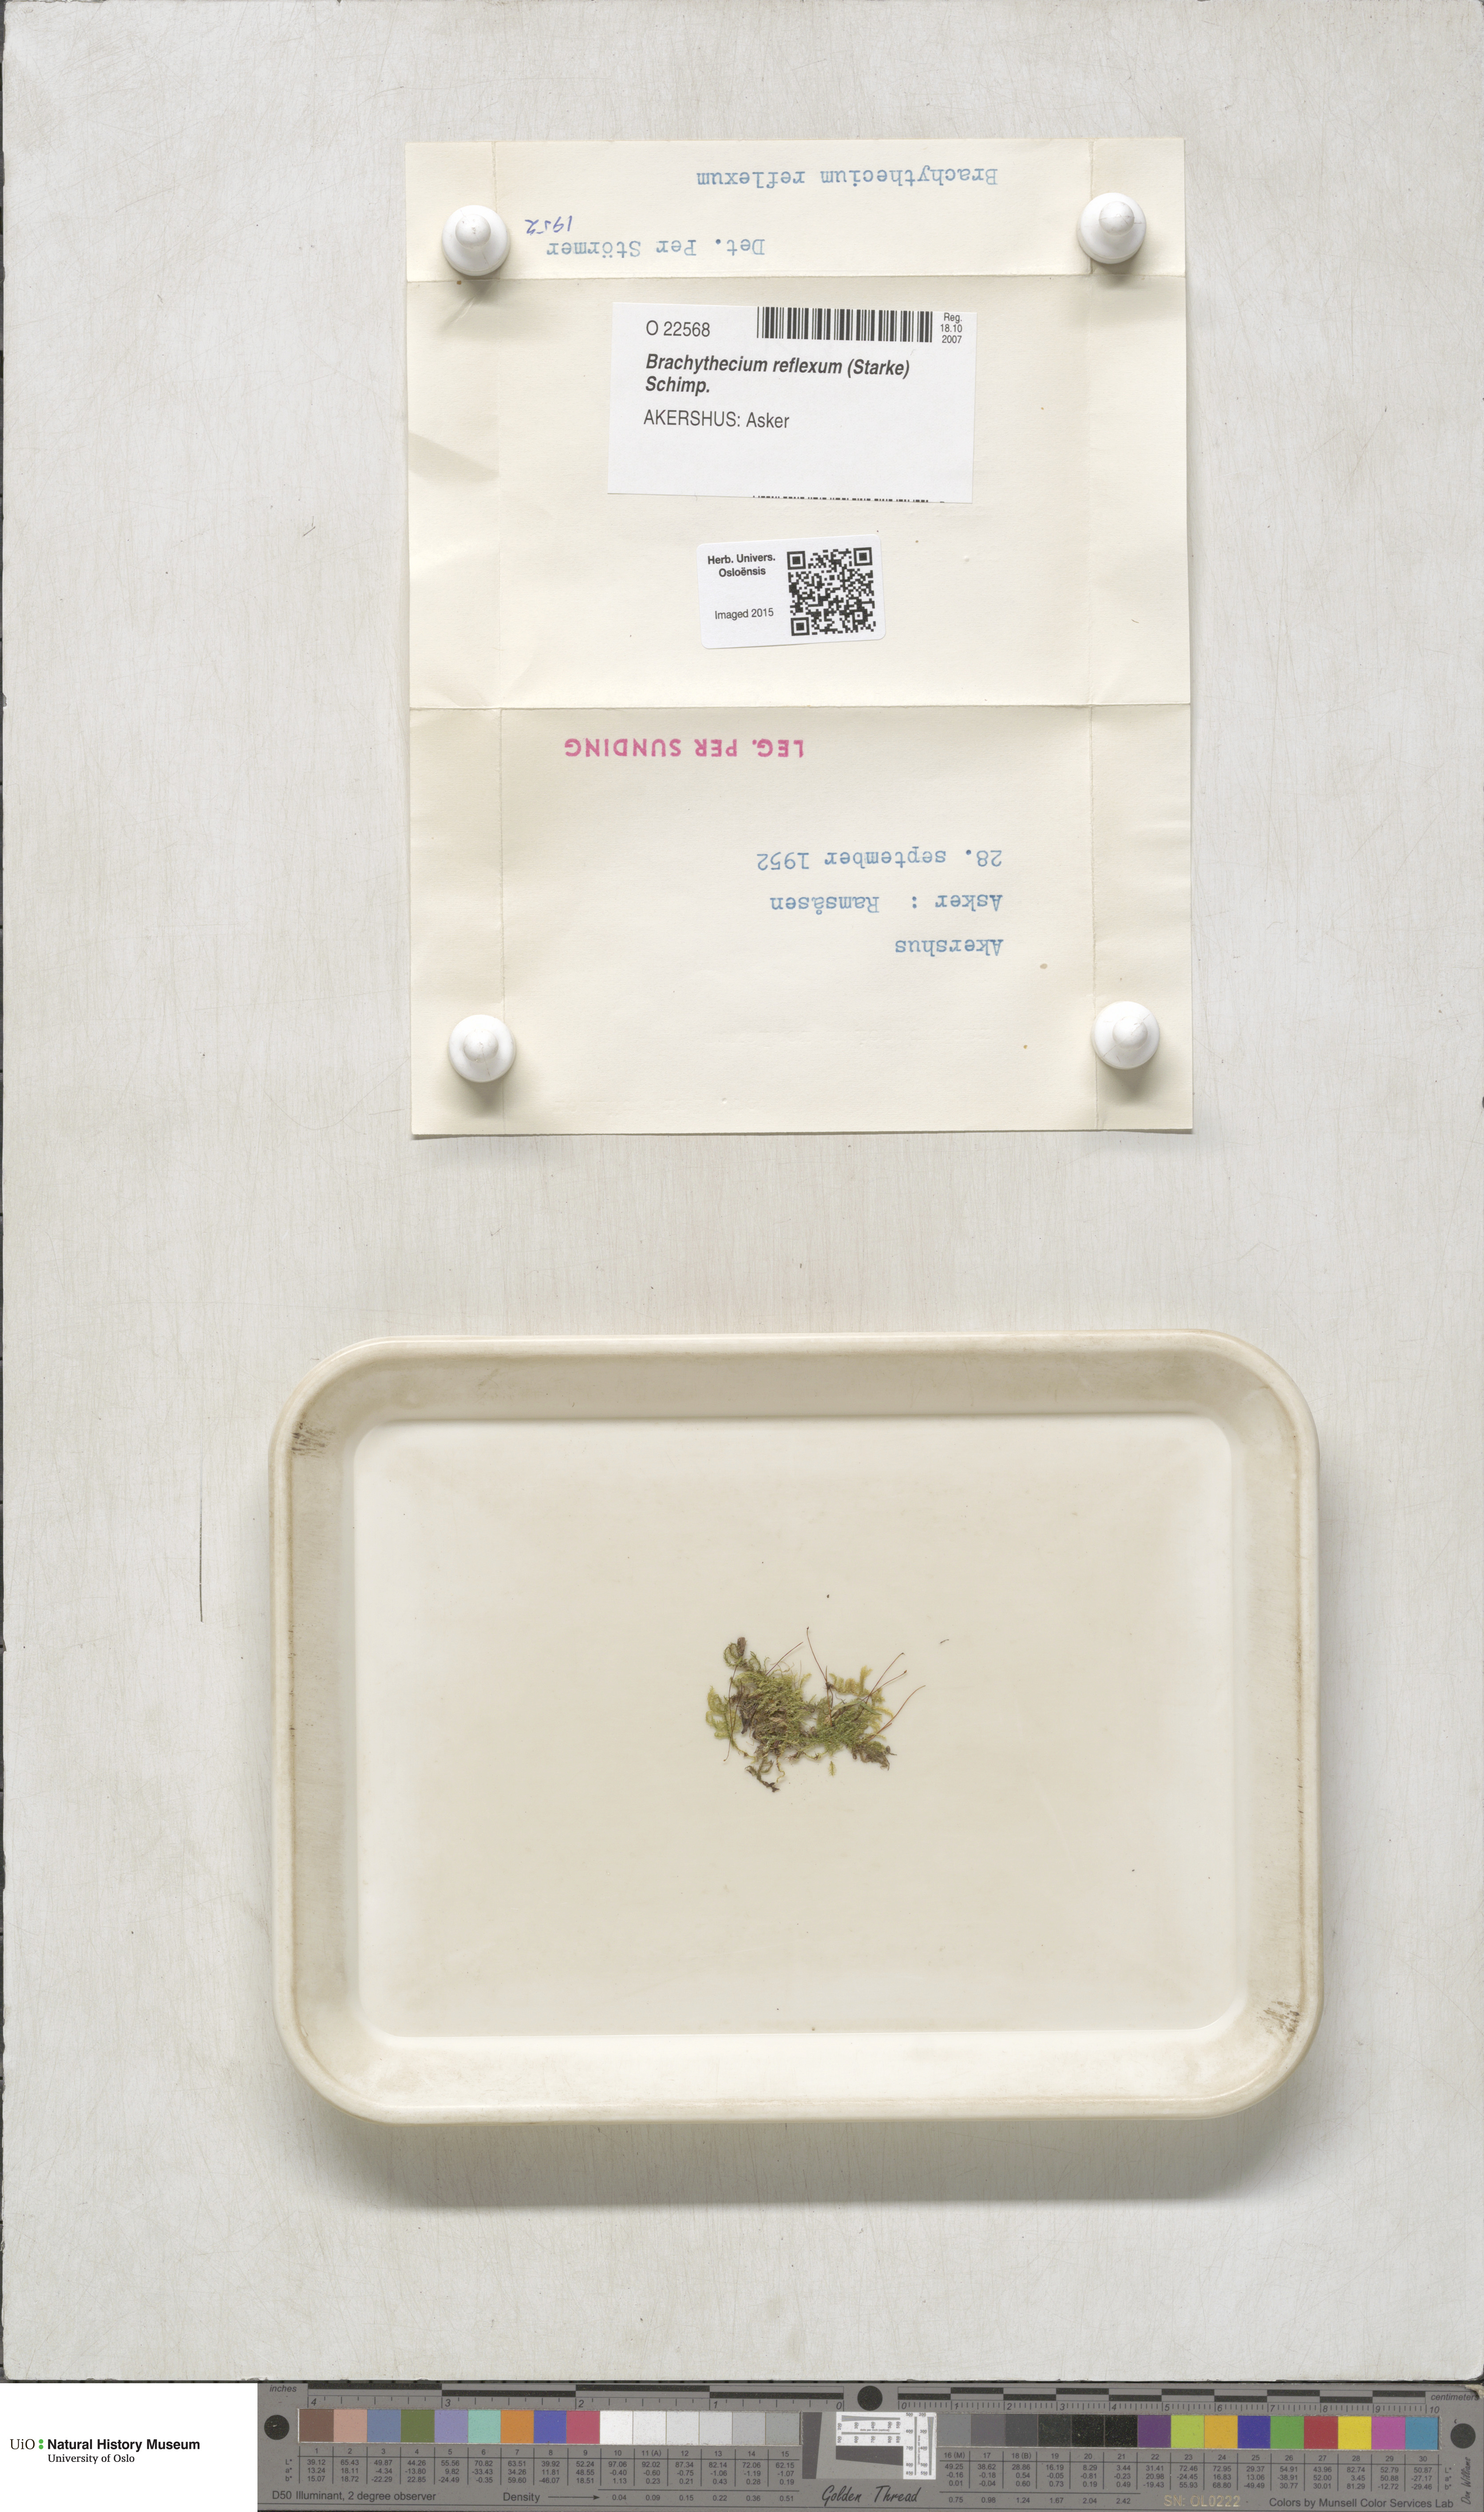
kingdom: Plantae
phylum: Bryophyta
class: Bryopsida
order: Hypnales
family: Brachytheciaceae
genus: Sciuro-hypnum
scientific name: Sciuro-hypnum reflexum
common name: Reflexed feather-moss
